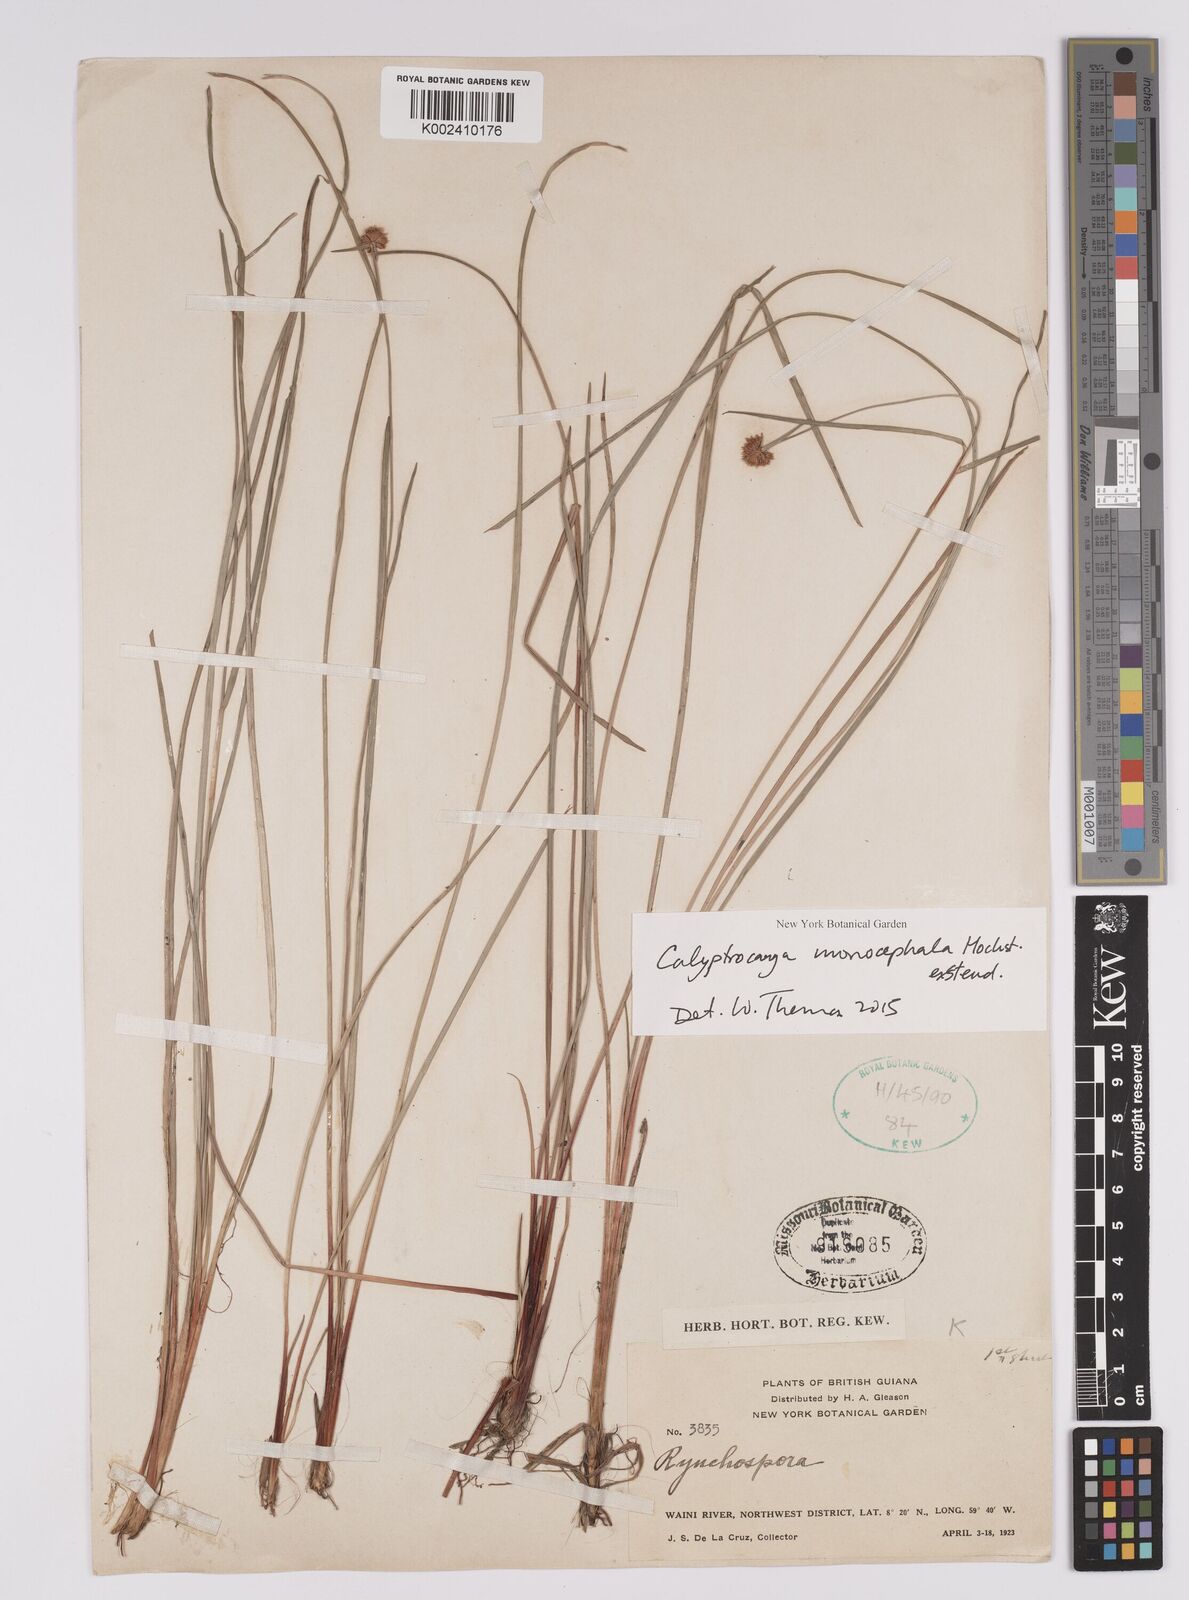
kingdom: Plantae
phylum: Tracheophyta
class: Liliopsida
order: Poales
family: Cyperaceae
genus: Calyptrocarya
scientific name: Calyptrocarya monocephala
